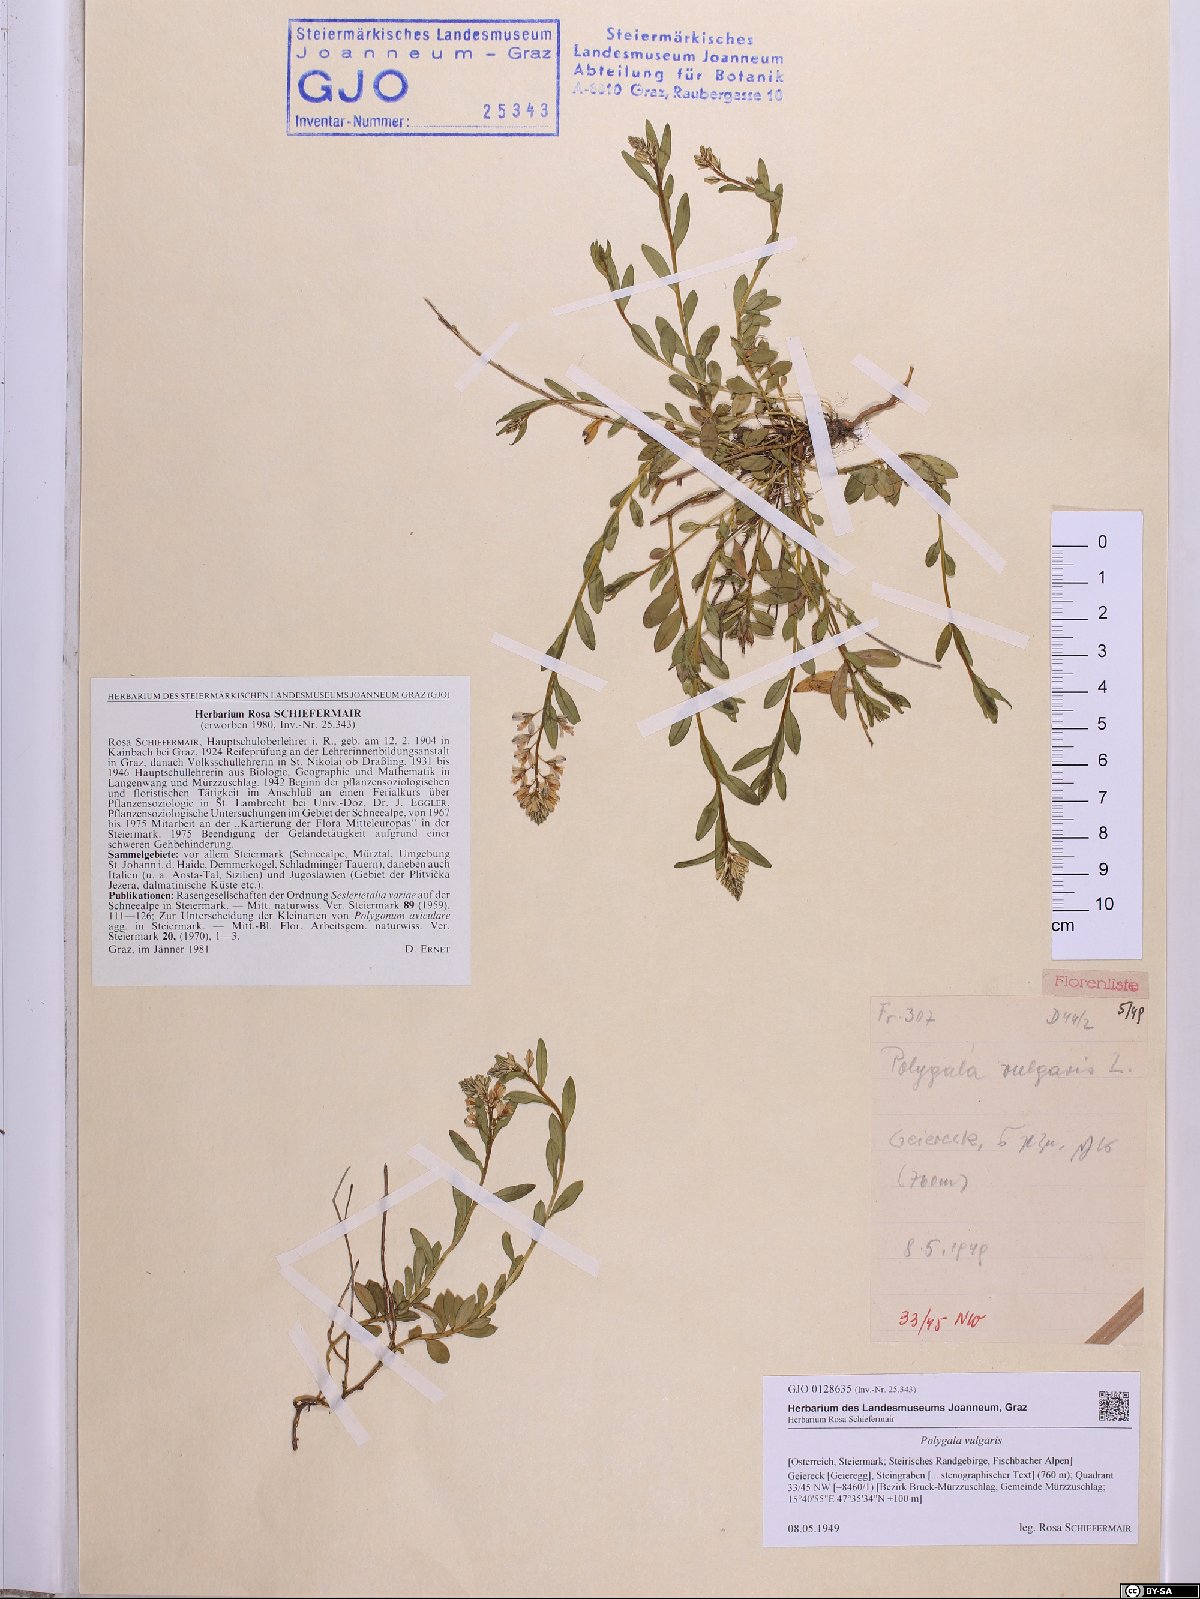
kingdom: Plantae
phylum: Tracheophyta
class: Magnoliopsida
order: Fabales
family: Polygalaceae
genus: Polygala
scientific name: Polygala vulgaris
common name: Common milkwort
